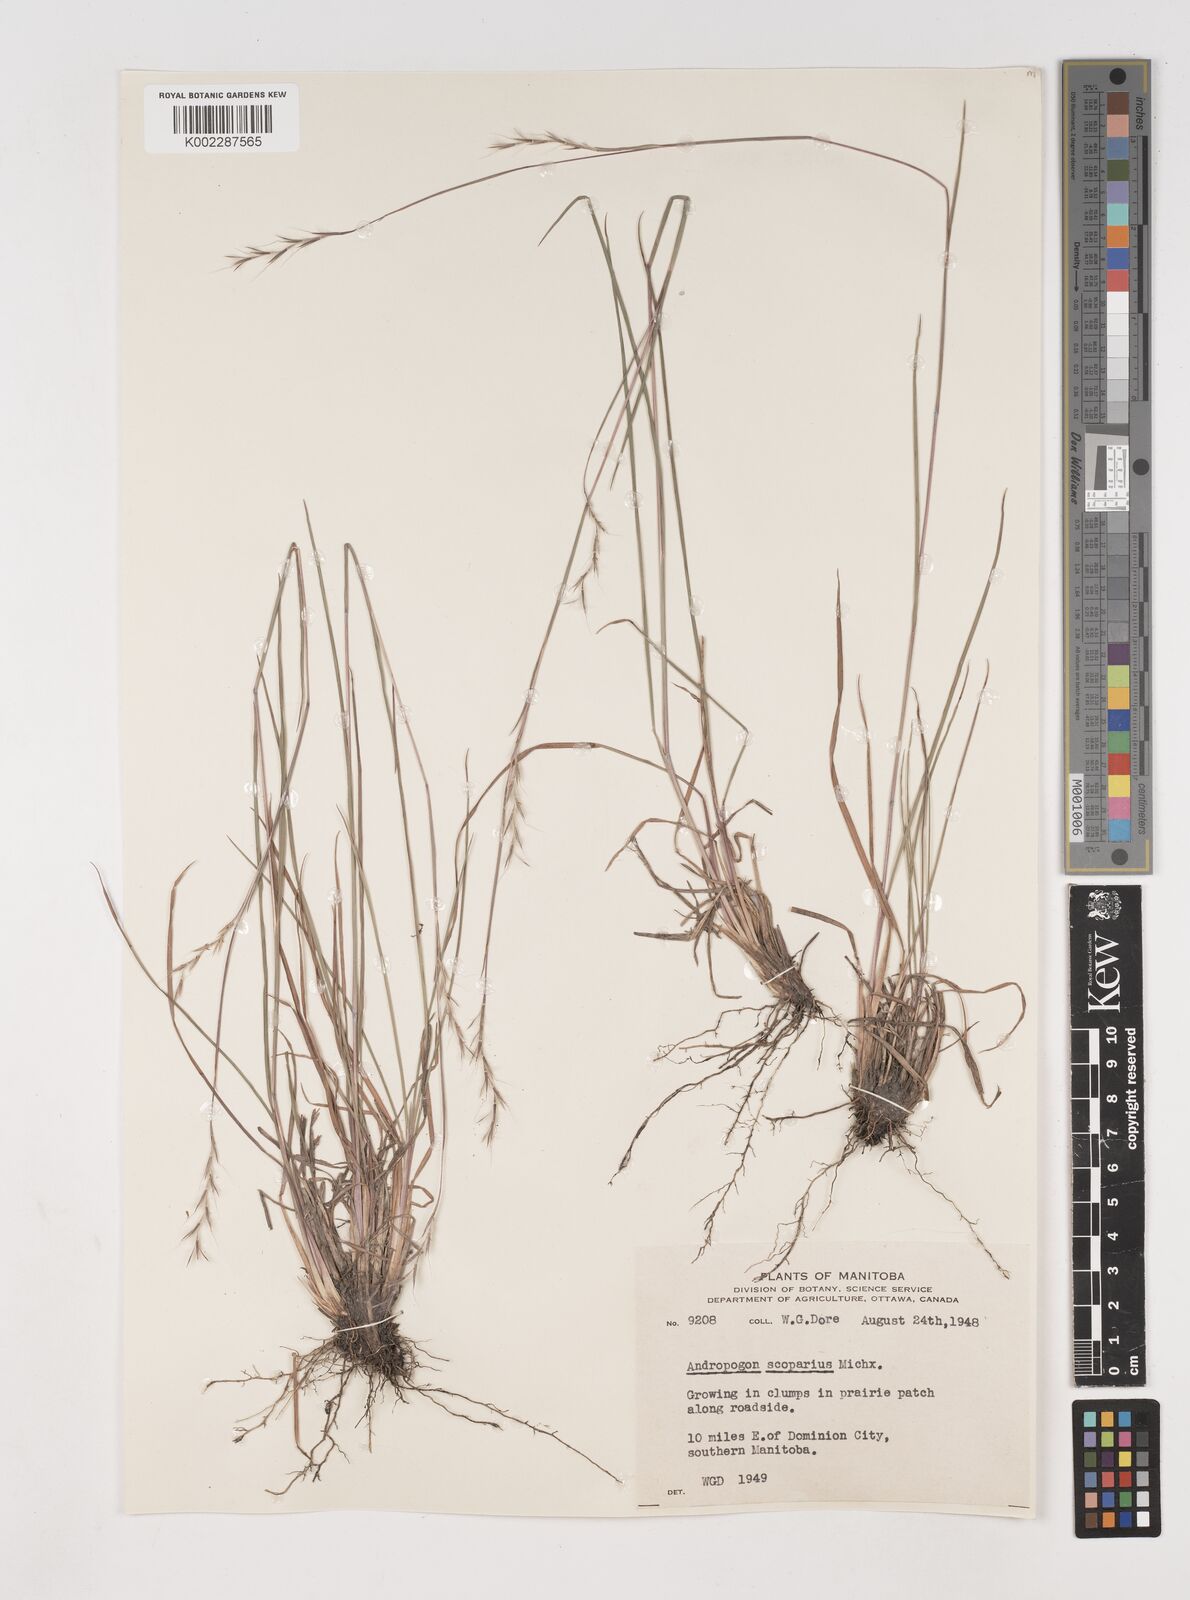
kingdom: Plantae
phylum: Tracheophyta
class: Liliopsida
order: Poales
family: Poaceae
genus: Schizachyrium
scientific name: Schizachyrium scoparium
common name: Little bluestem
